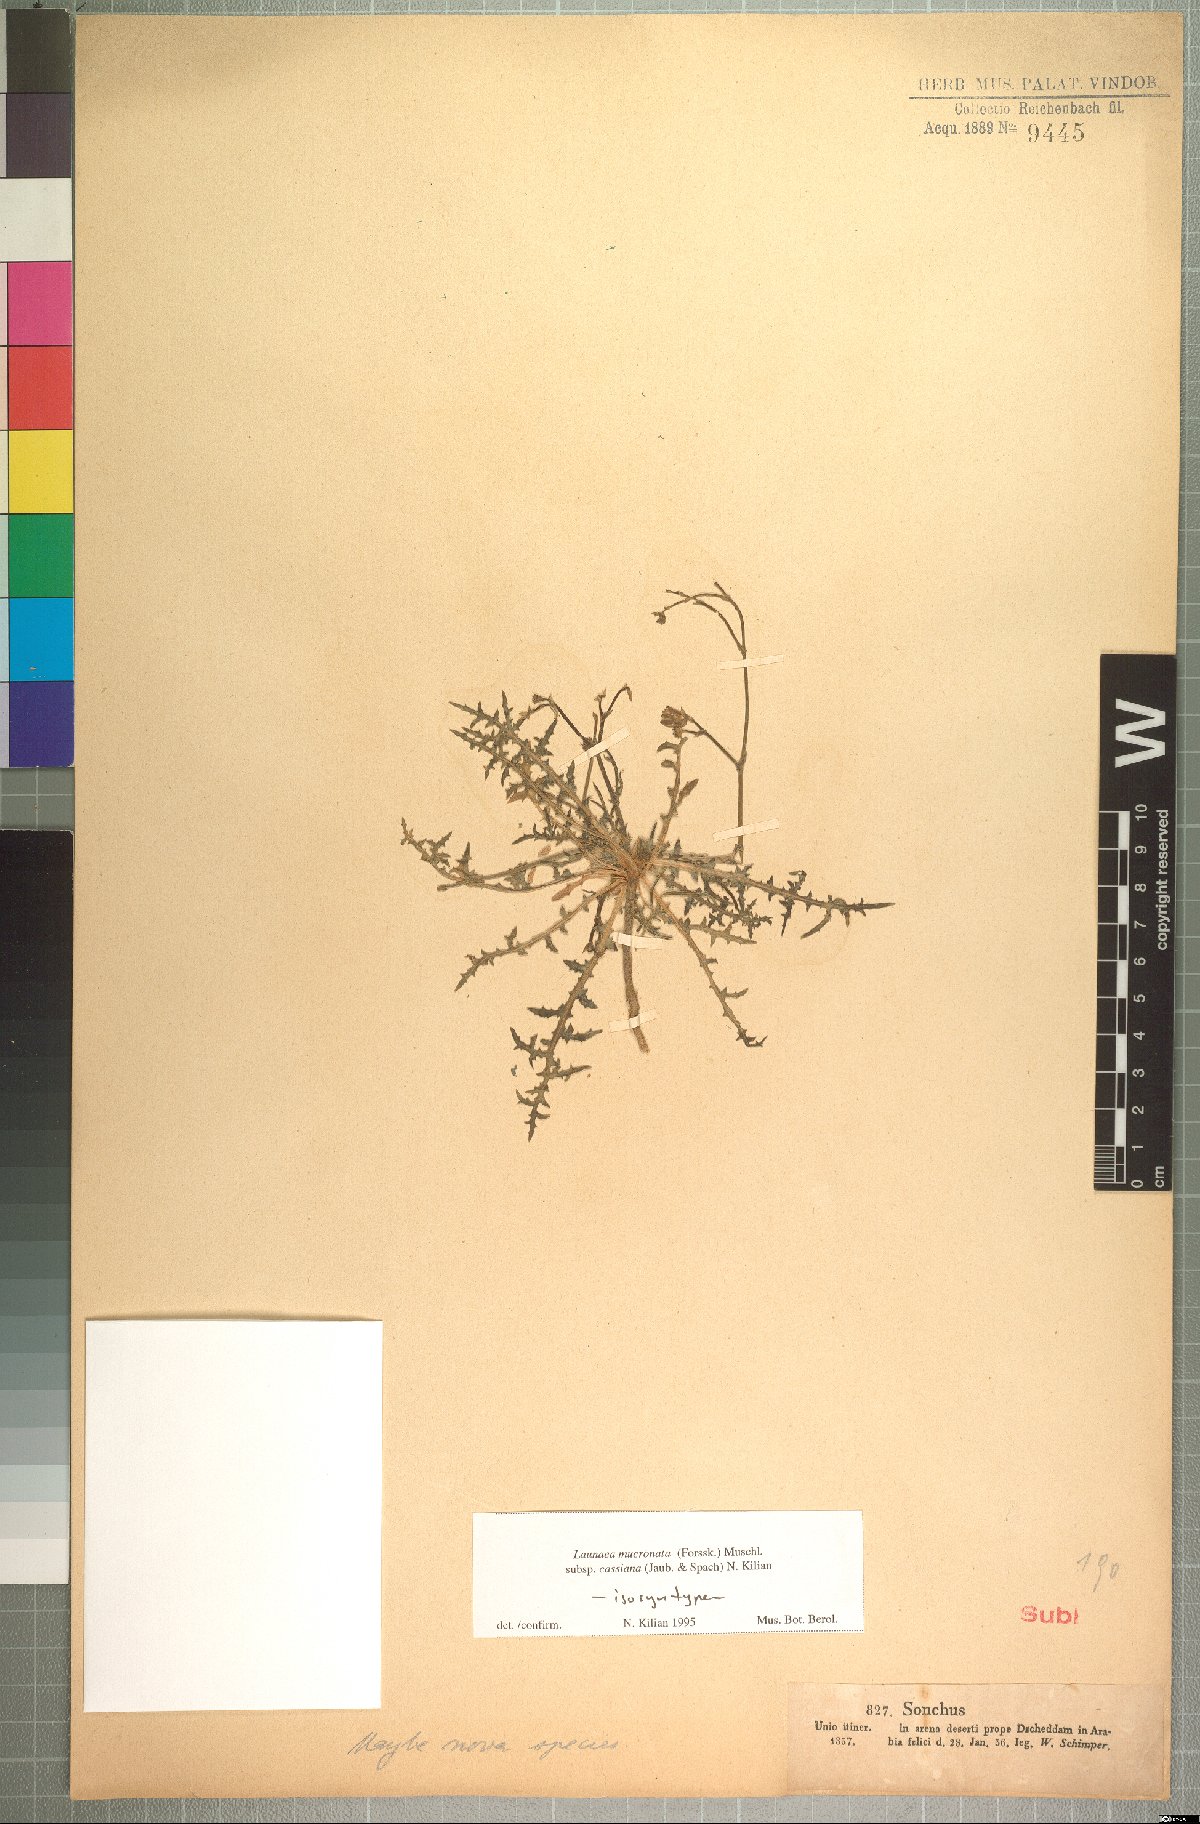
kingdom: Plantae
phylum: Tracheophyta
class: Magnoliopsida
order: Asterales
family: Asteraceae
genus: Launaea
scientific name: Launaea mucronata
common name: Mucronate launea
